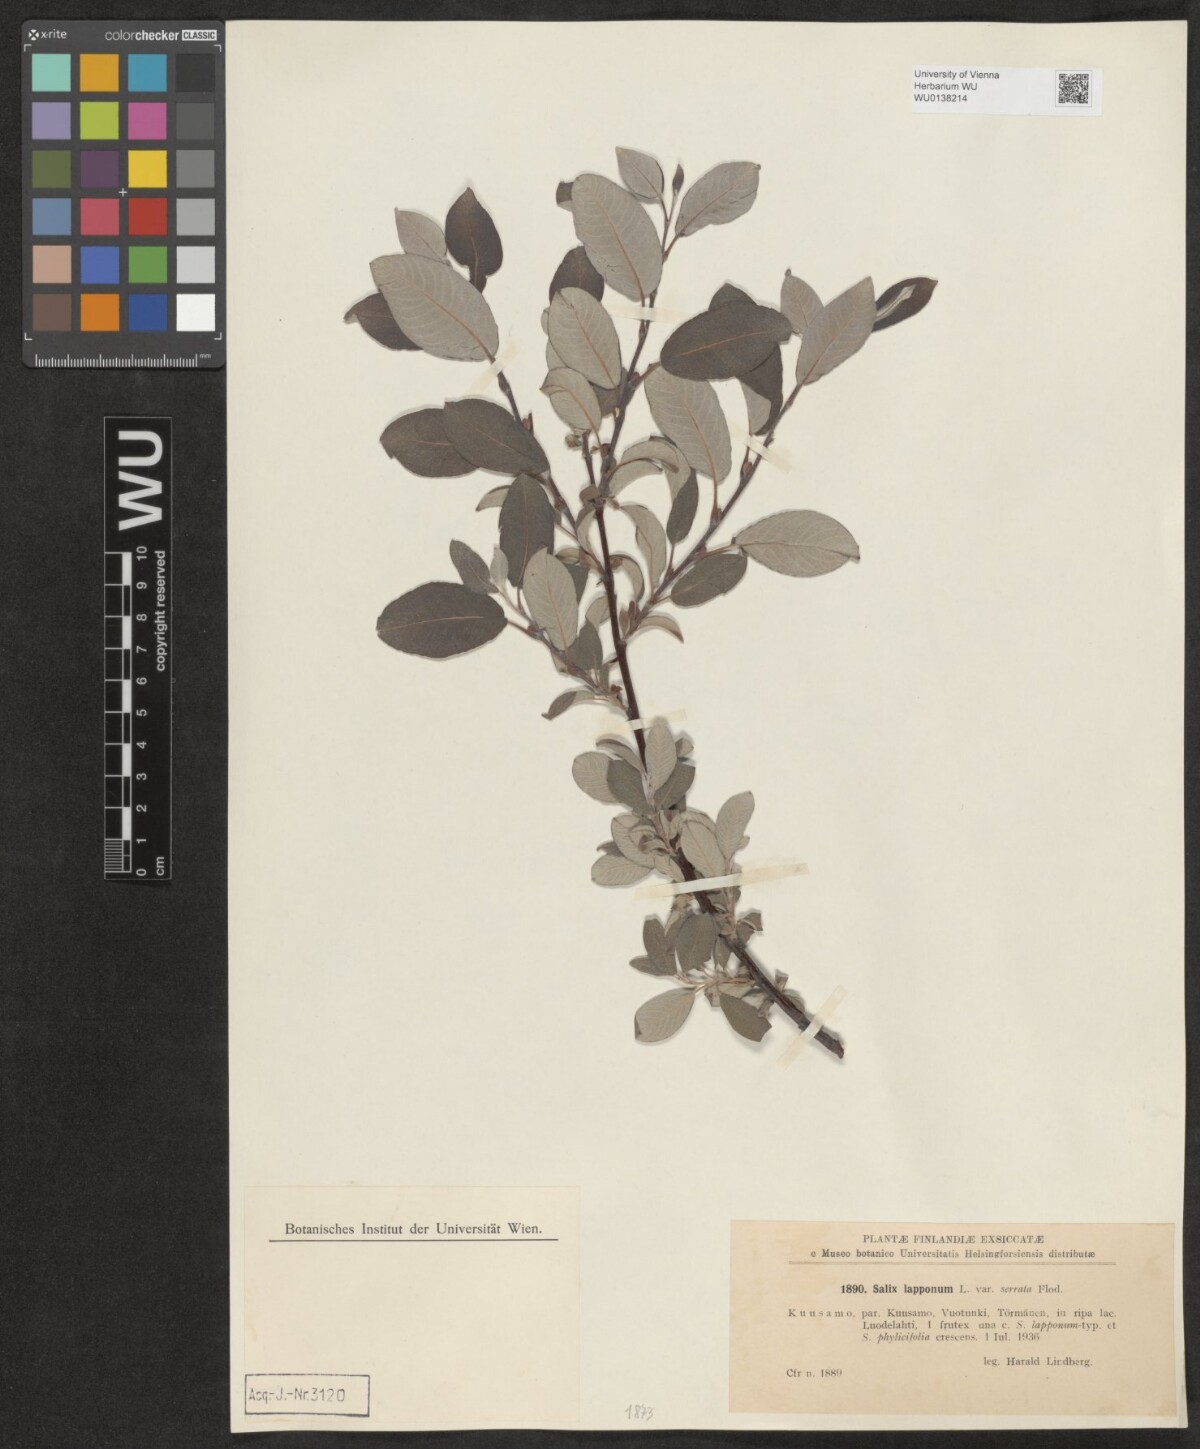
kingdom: Plantae
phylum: Tracheophyta
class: Magnoliopsida
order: Malpighiales
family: Salicaceae
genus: Salix
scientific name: Salix lapponum
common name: Downy willow
